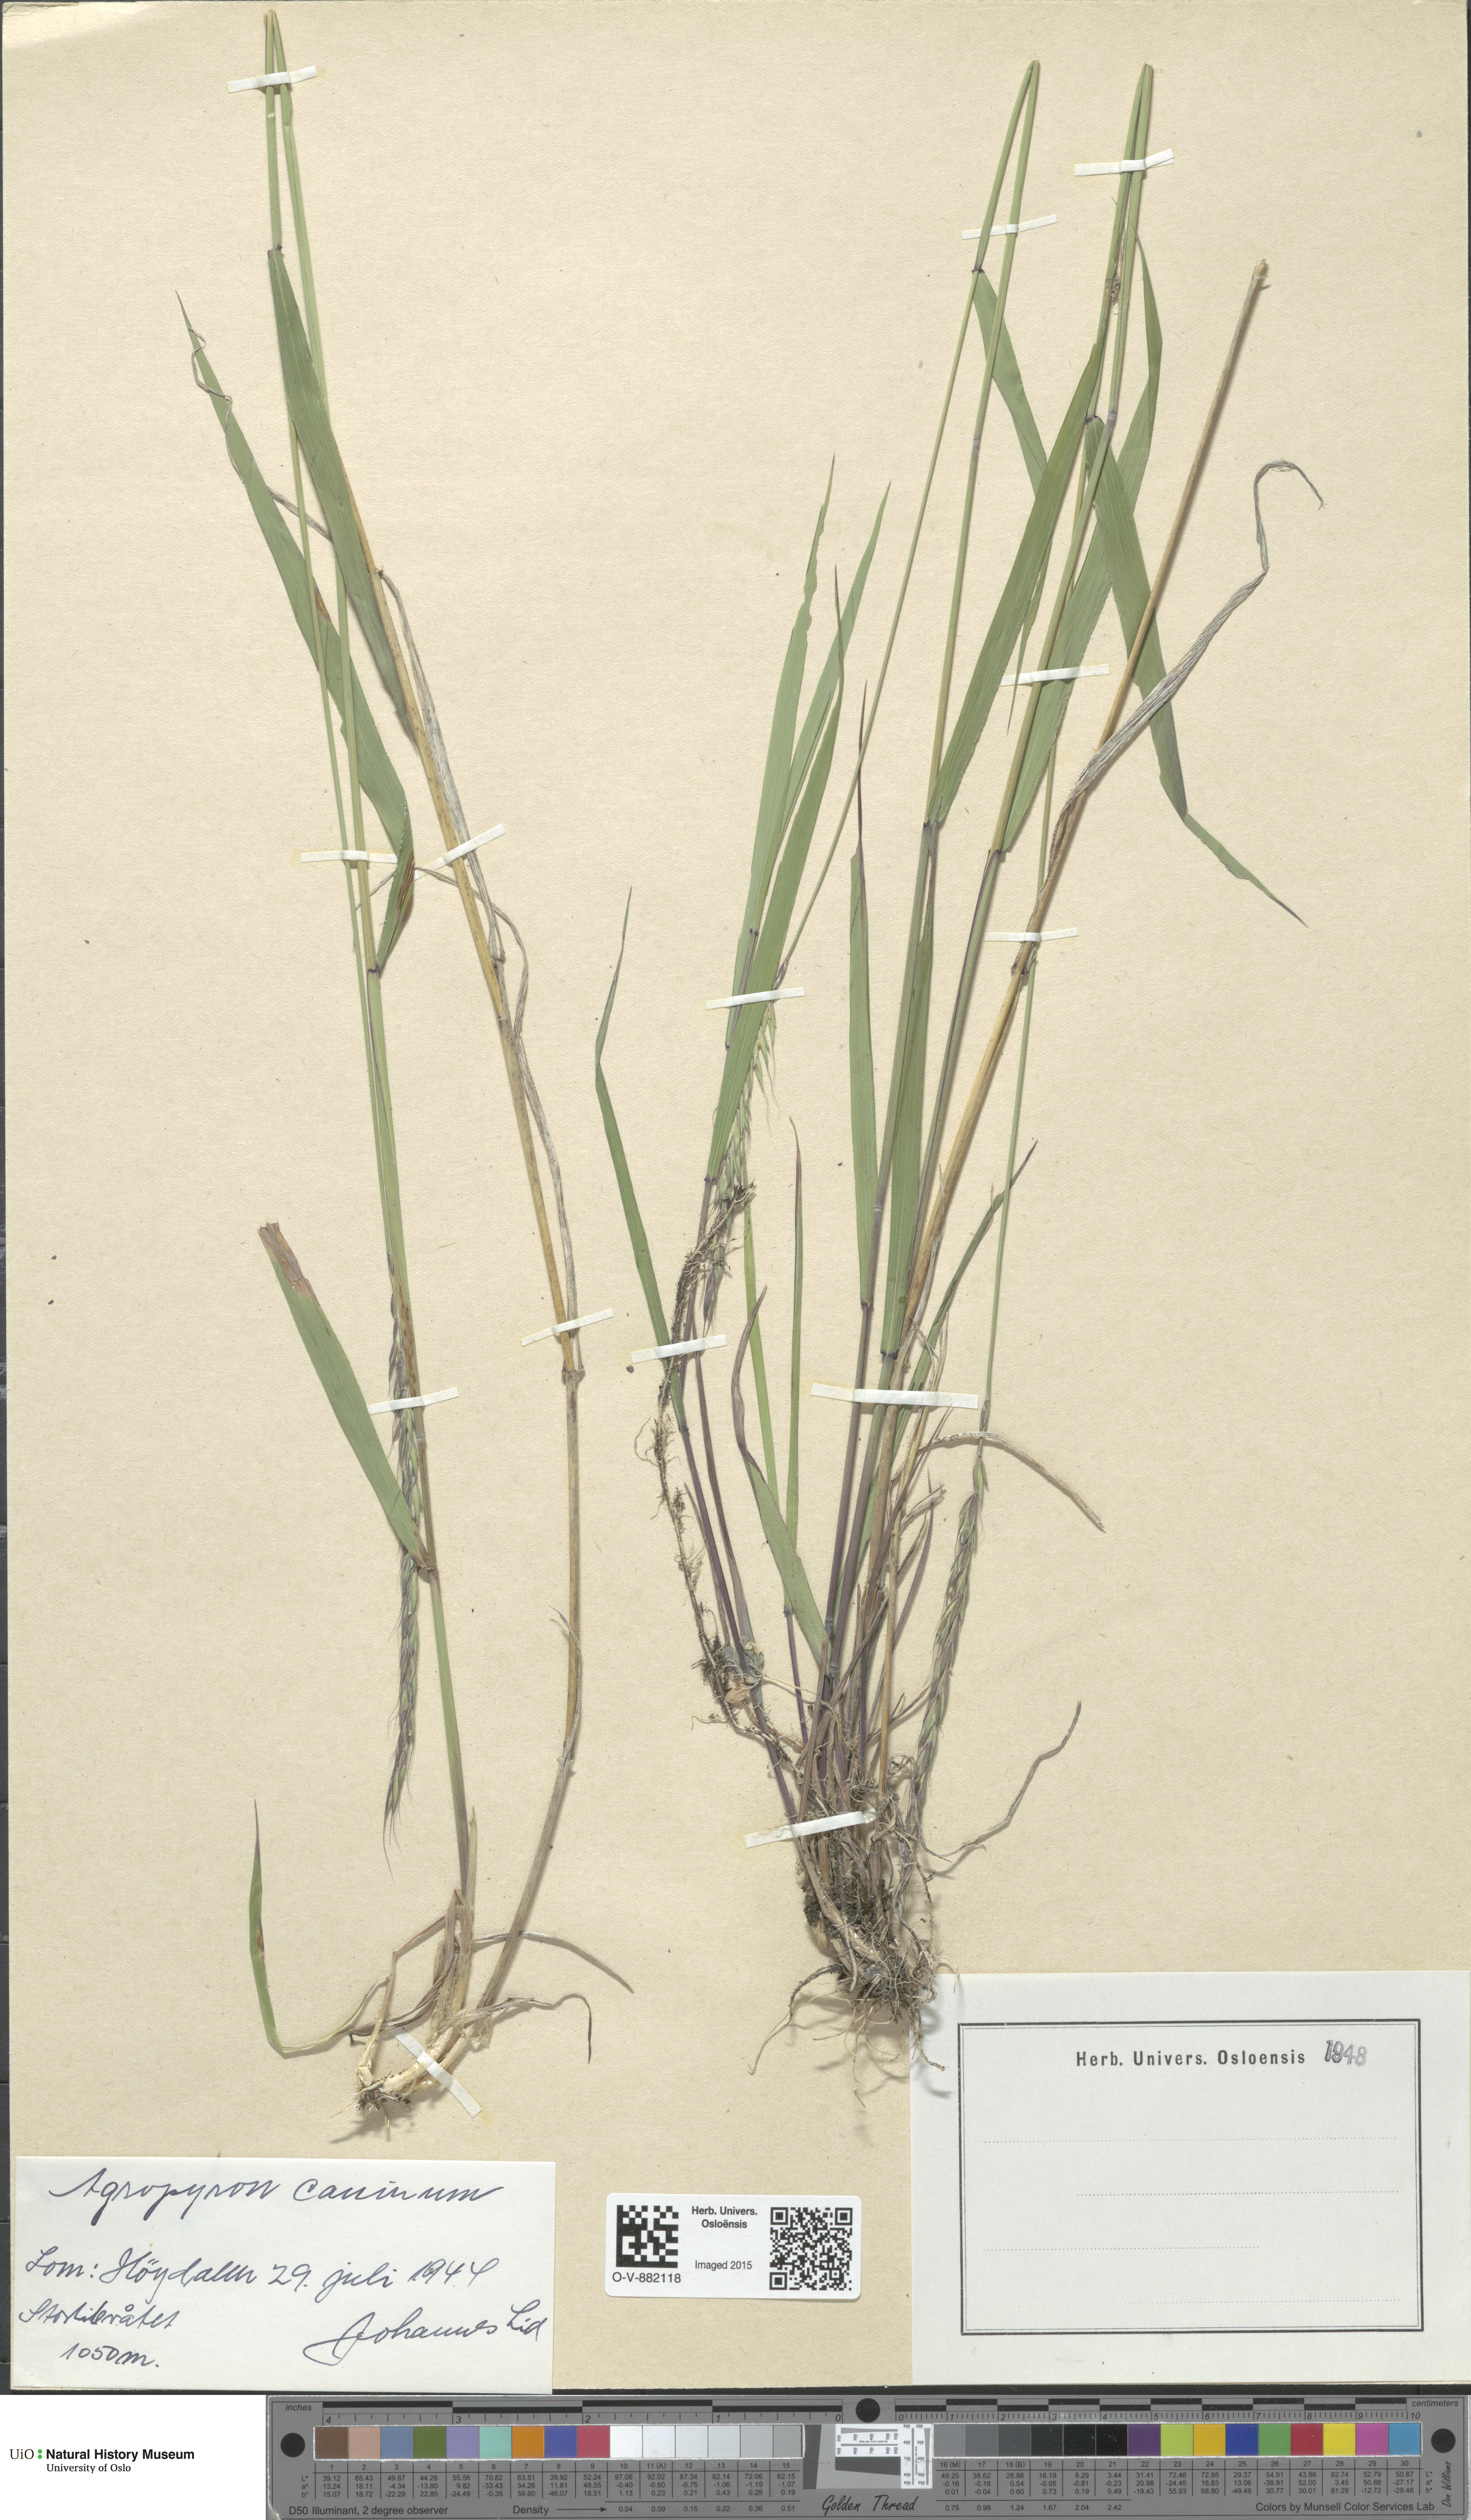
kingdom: Plantae
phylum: Tracheophyta
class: Liliopsida
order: Poales
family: Poaceae
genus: Elymus
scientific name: Elymus caninus
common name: Bearded couch
